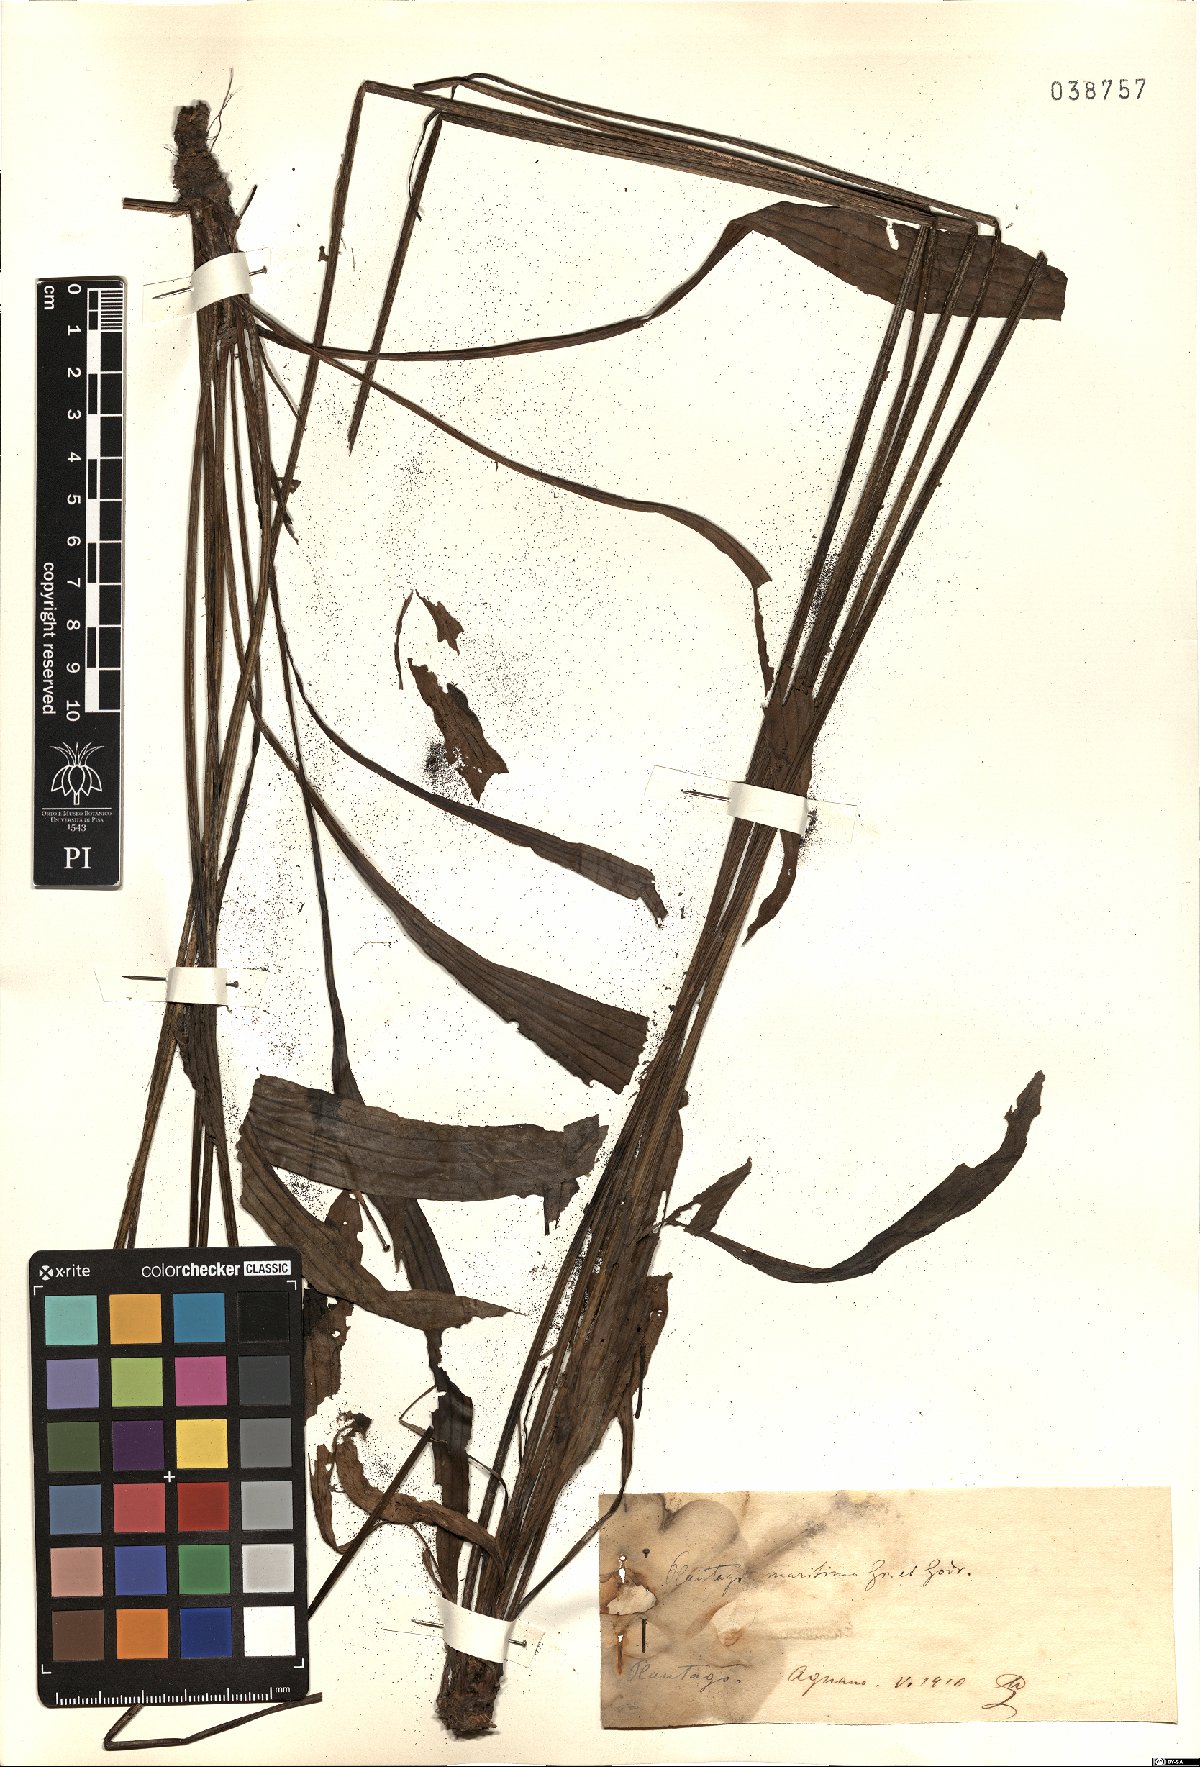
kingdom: Plantae
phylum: Tracheophyta
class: Magnoliopsida
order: Lamiales
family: Plantaginaceae
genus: Plantago
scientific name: Plantago maritima
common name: Sea plantain
